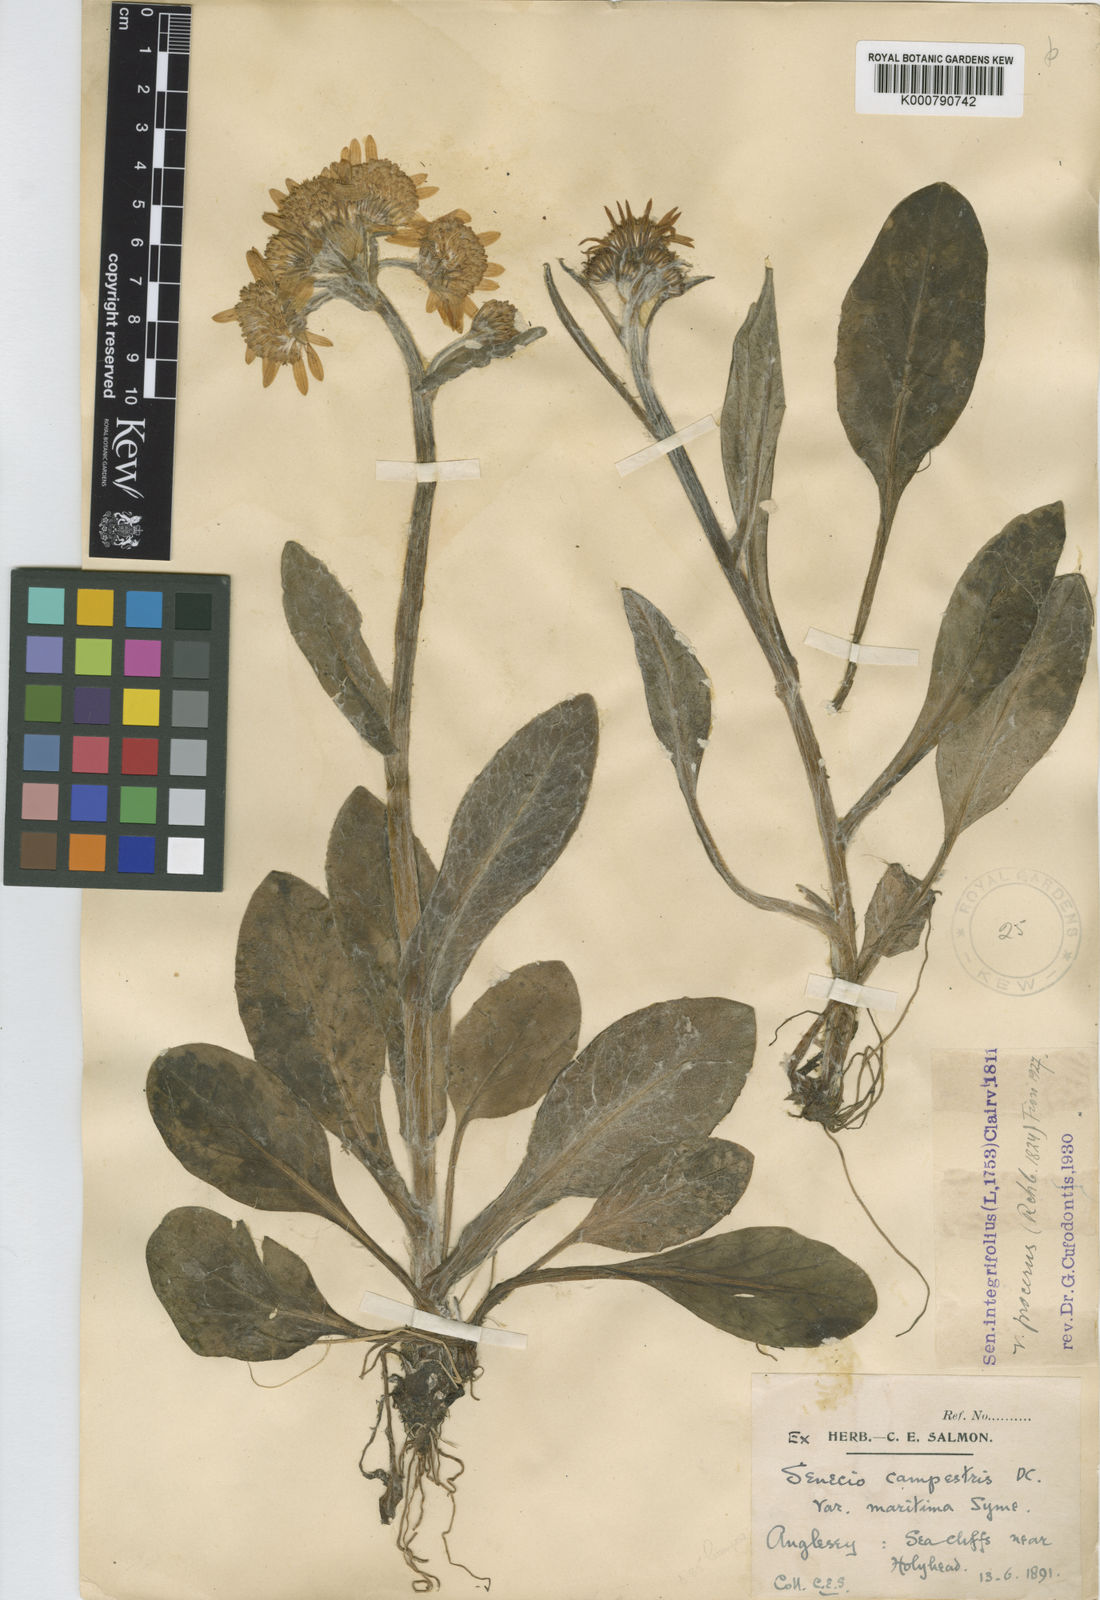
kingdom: Plantae
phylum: Tracheophyta
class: Magnoliopsida
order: Asterales
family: Asteraceae
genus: Tephroseris
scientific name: Tephroseris integrifolia
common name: Field fleawort
